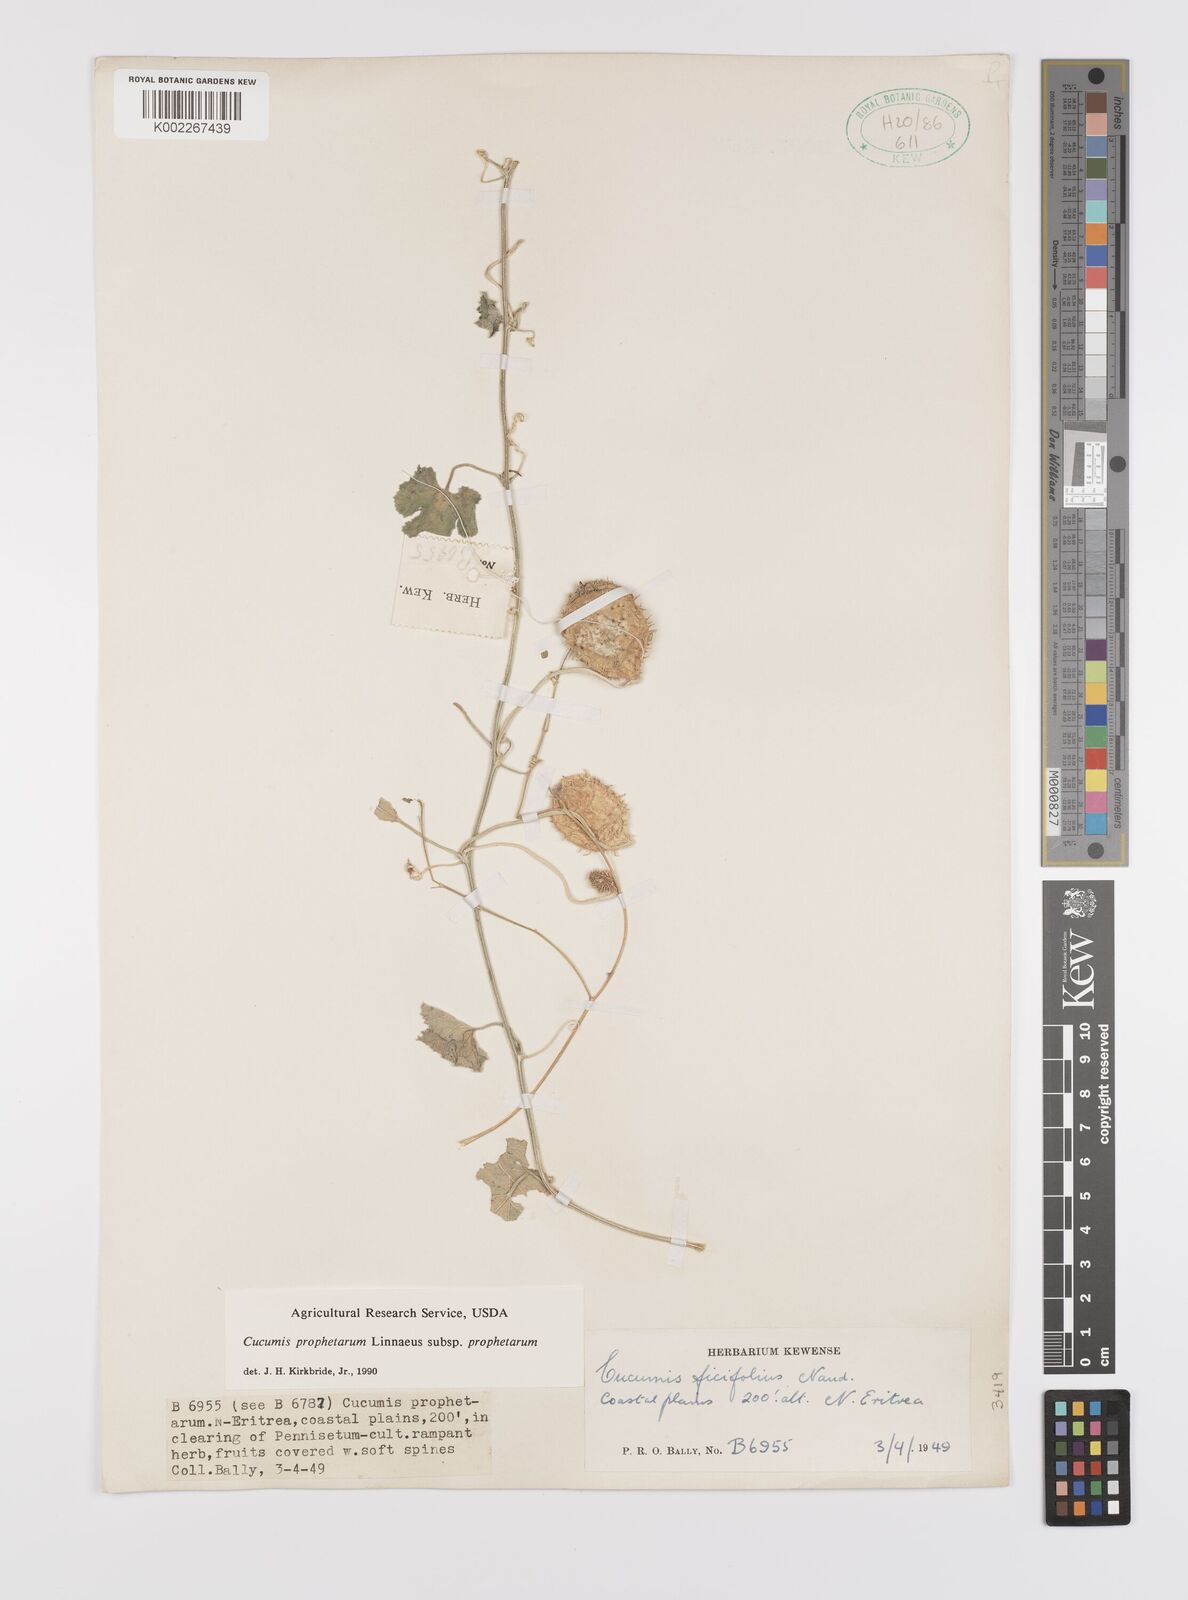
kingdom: Plantae
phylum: Tracheophyta
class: Magnoliopsida
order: Cucurbitales
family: Cucurbitaceae
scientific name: Cucurbitaceae
